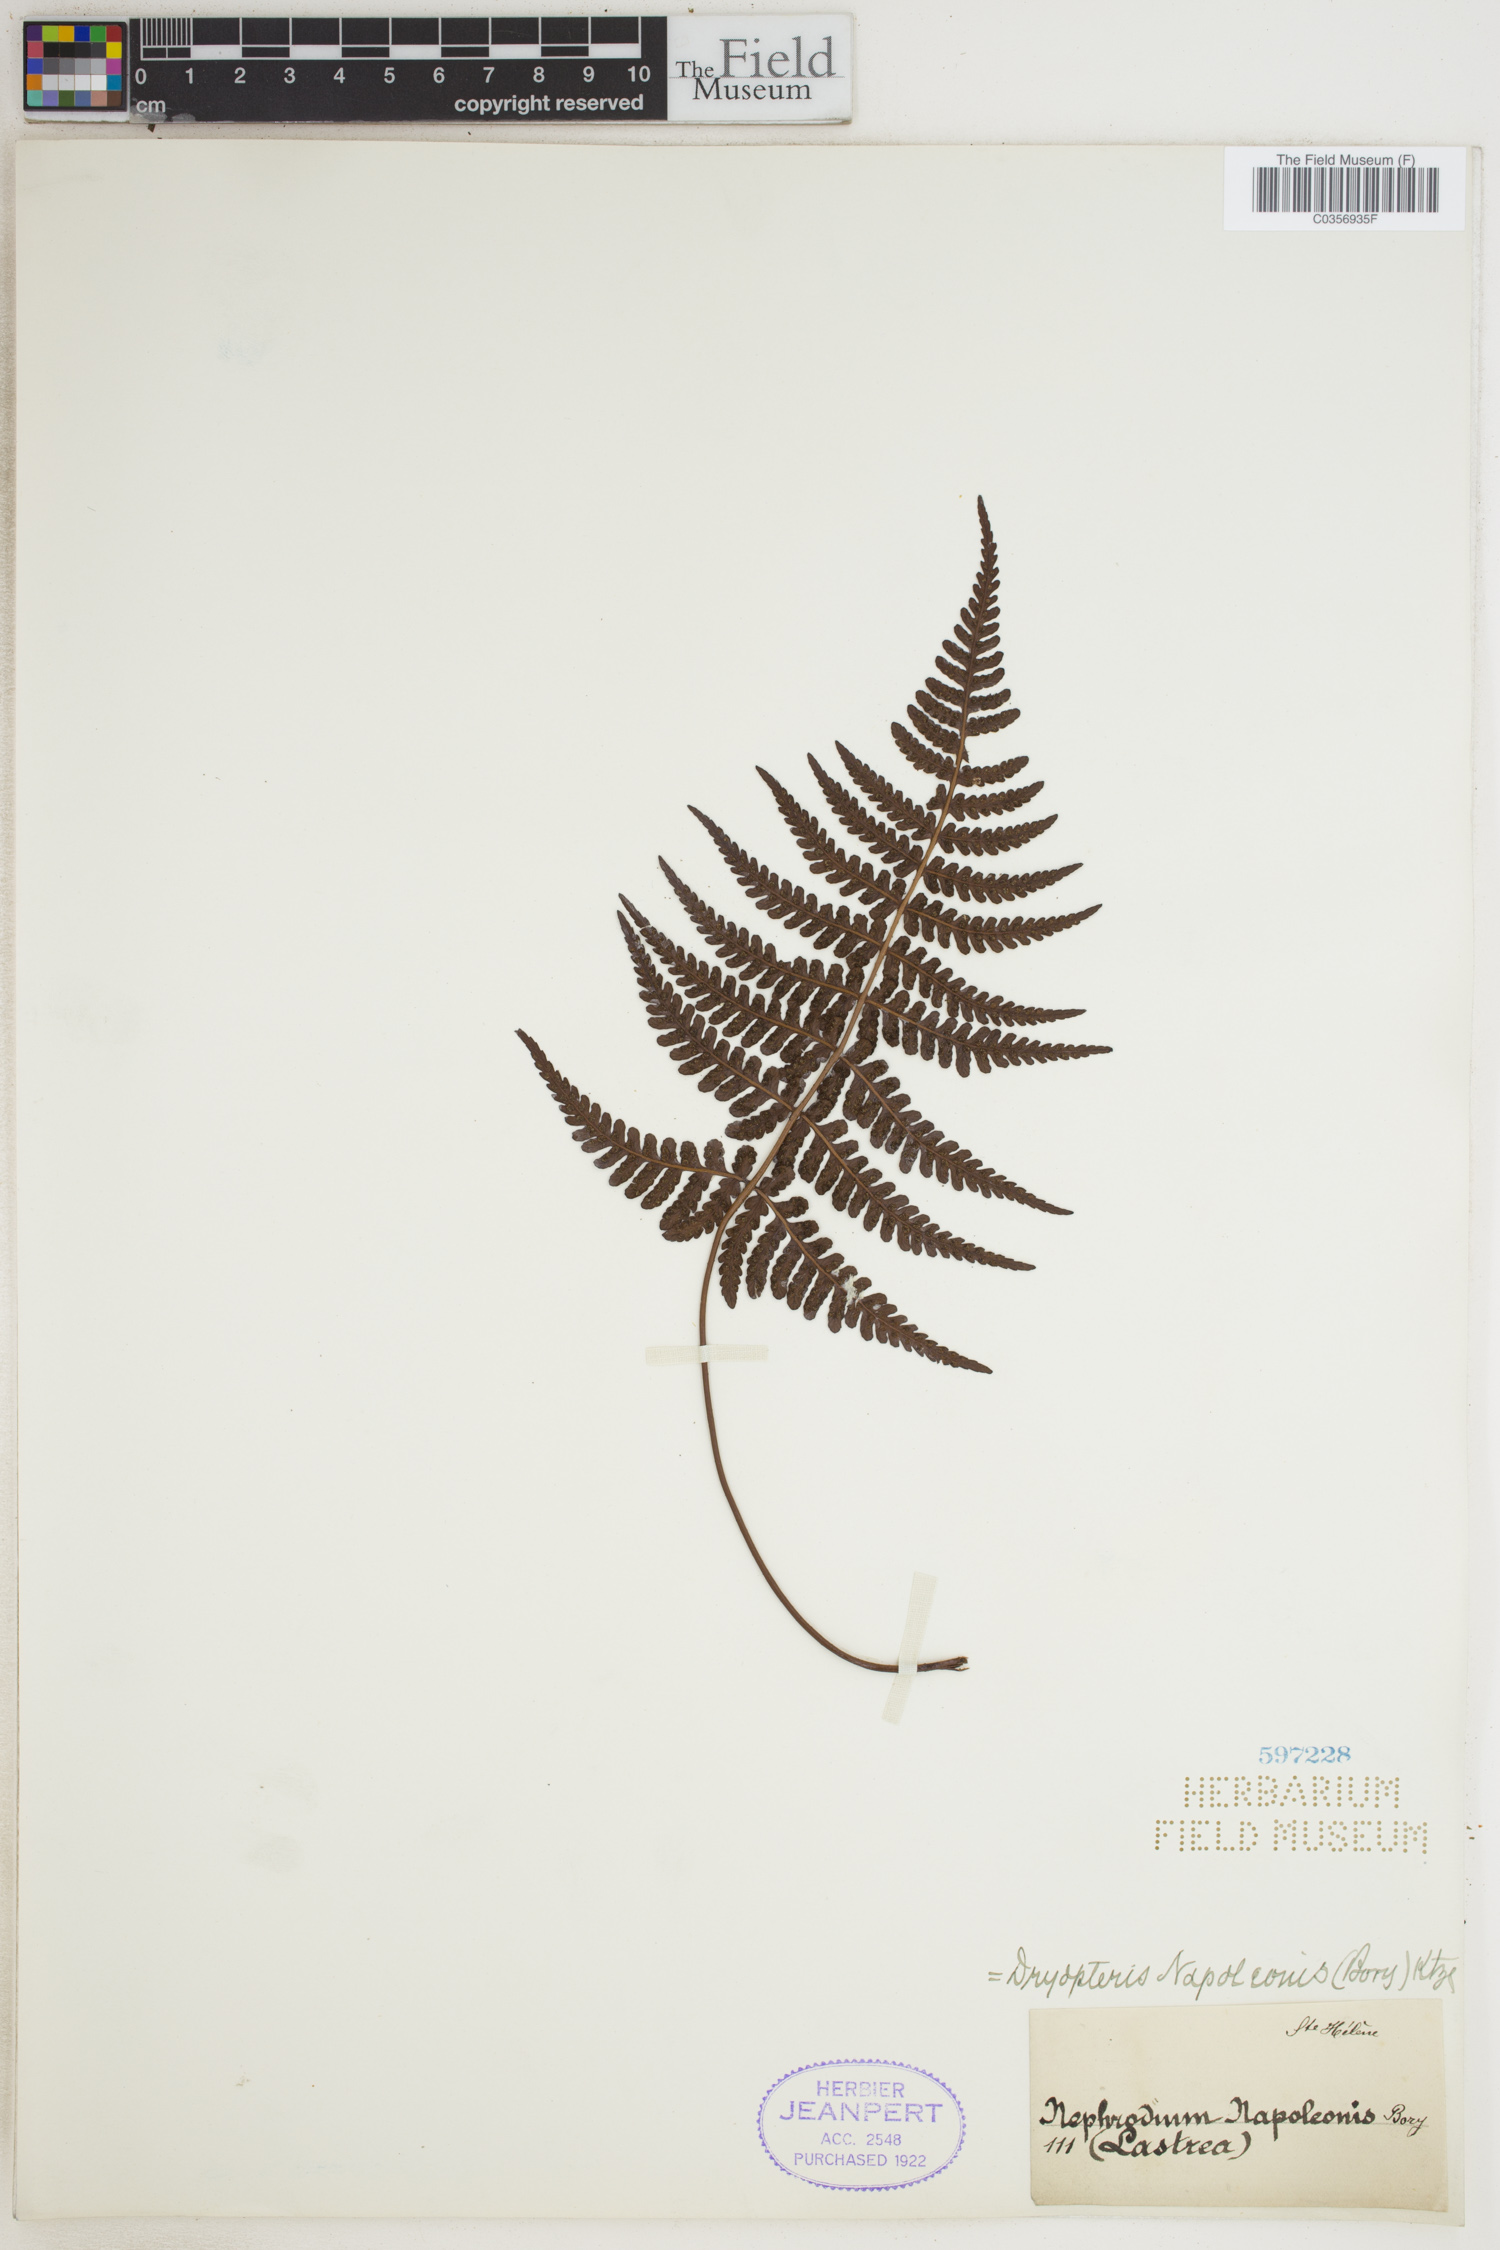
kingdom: Plantae
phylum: Tracheophyta
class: Polypodiopsida
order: Polypodiales
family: Dryopteridaceae
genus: Dryopteris
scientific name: Dryopteris napoleonis
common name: Small kidney fern
